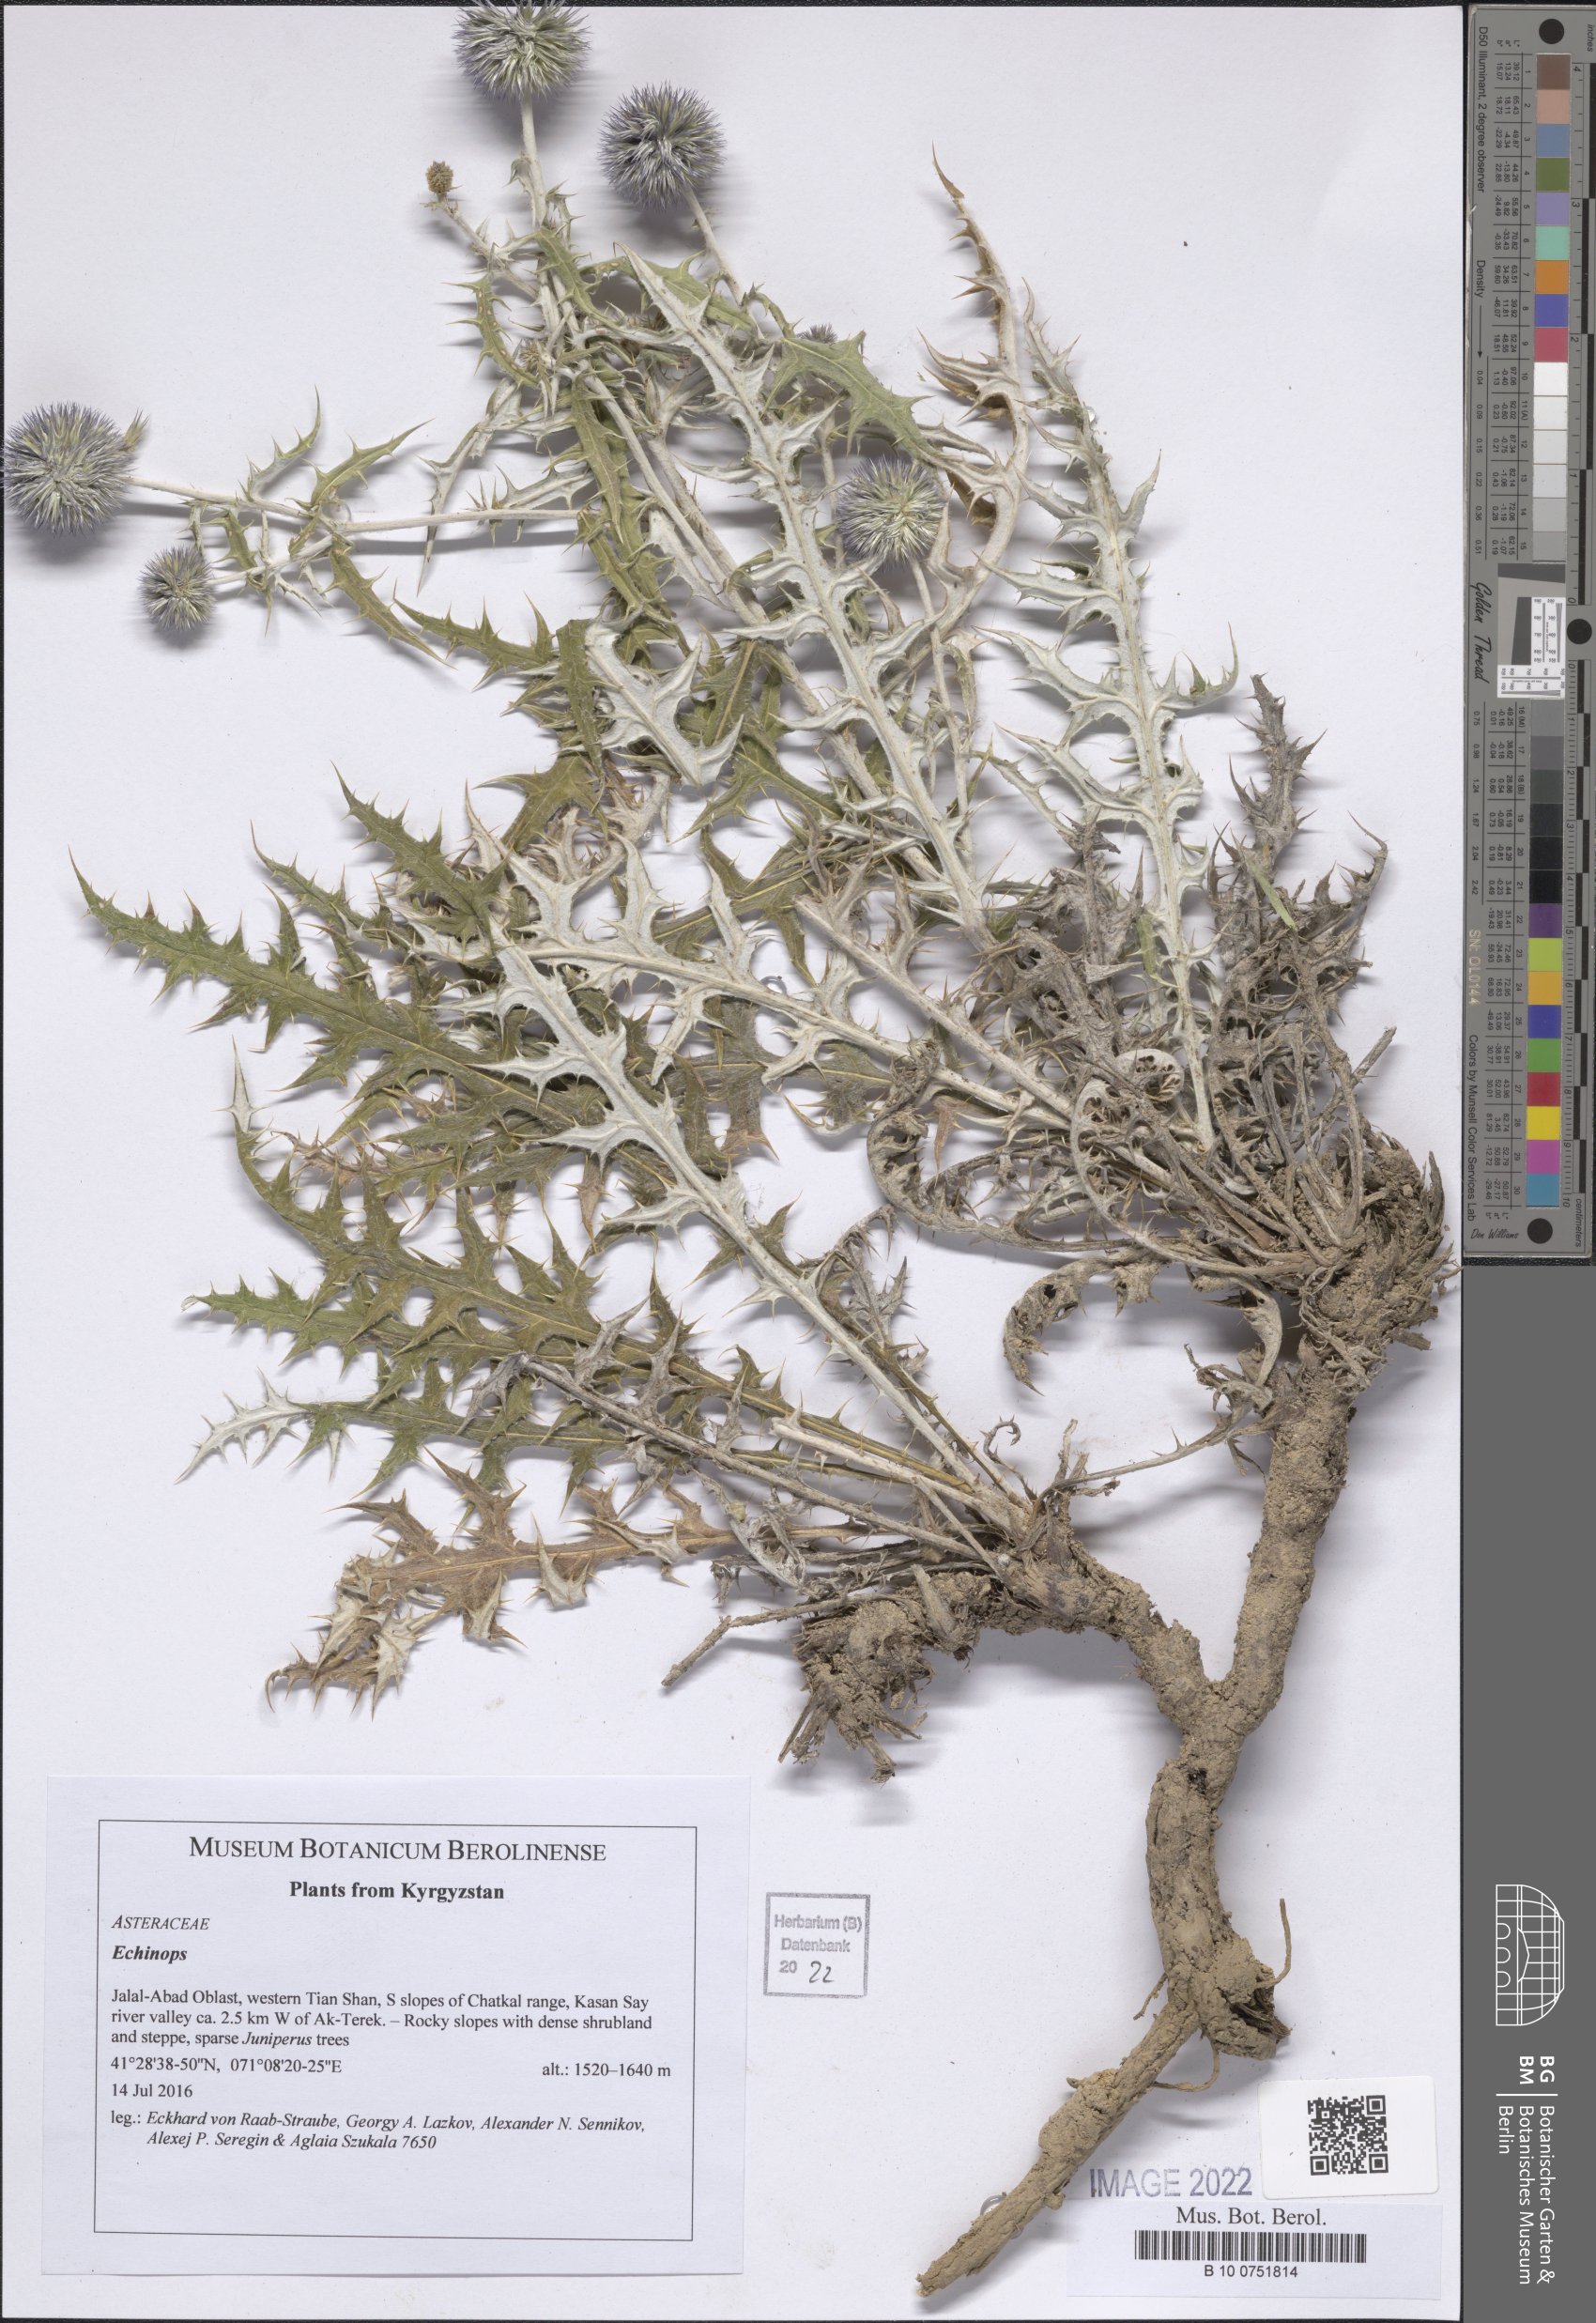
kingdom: Plantae
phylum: Tracheophyta
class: Magnoliopsida
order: Asterales
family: Asteraceae
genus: Echinops
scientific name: Echinops knorringianus
